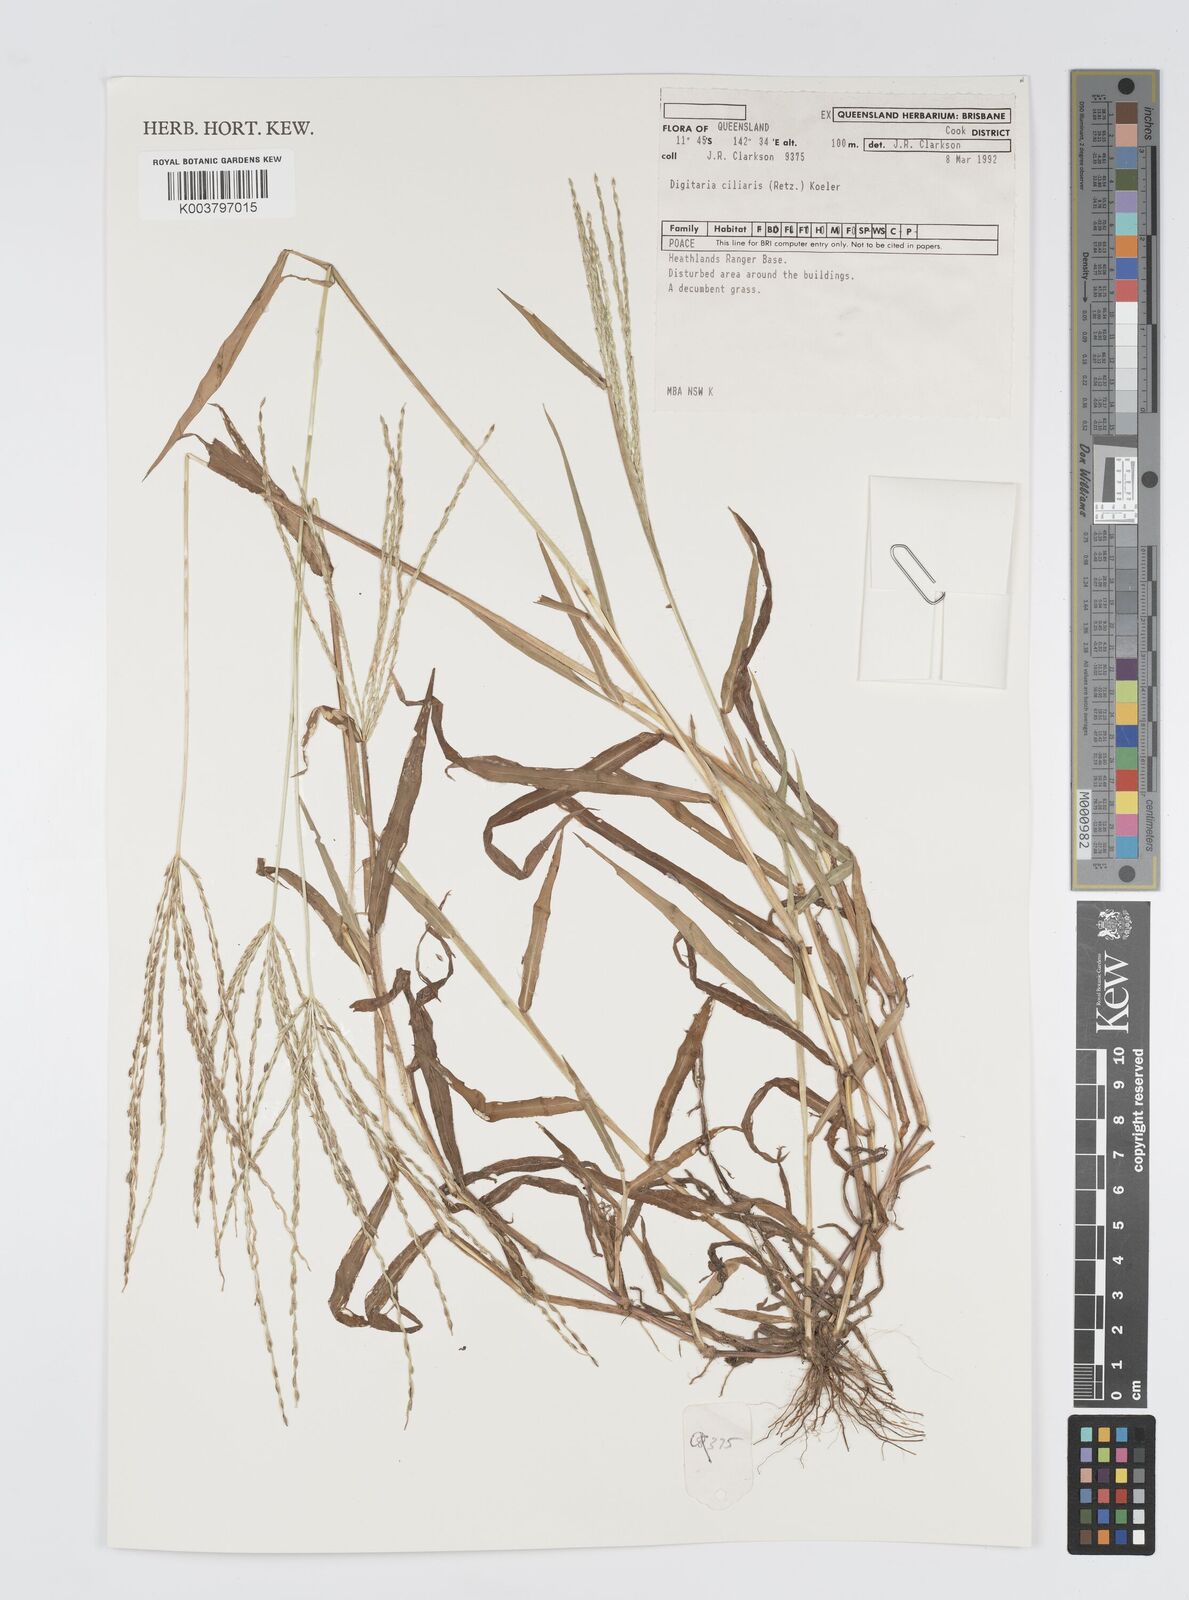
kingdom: Plantae
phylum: Tracheophyta
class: Liliopsida
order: Poales
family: Poaceae
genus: Digitaria
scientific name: Digitaria ciliaris
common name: Tropical finger-grass
